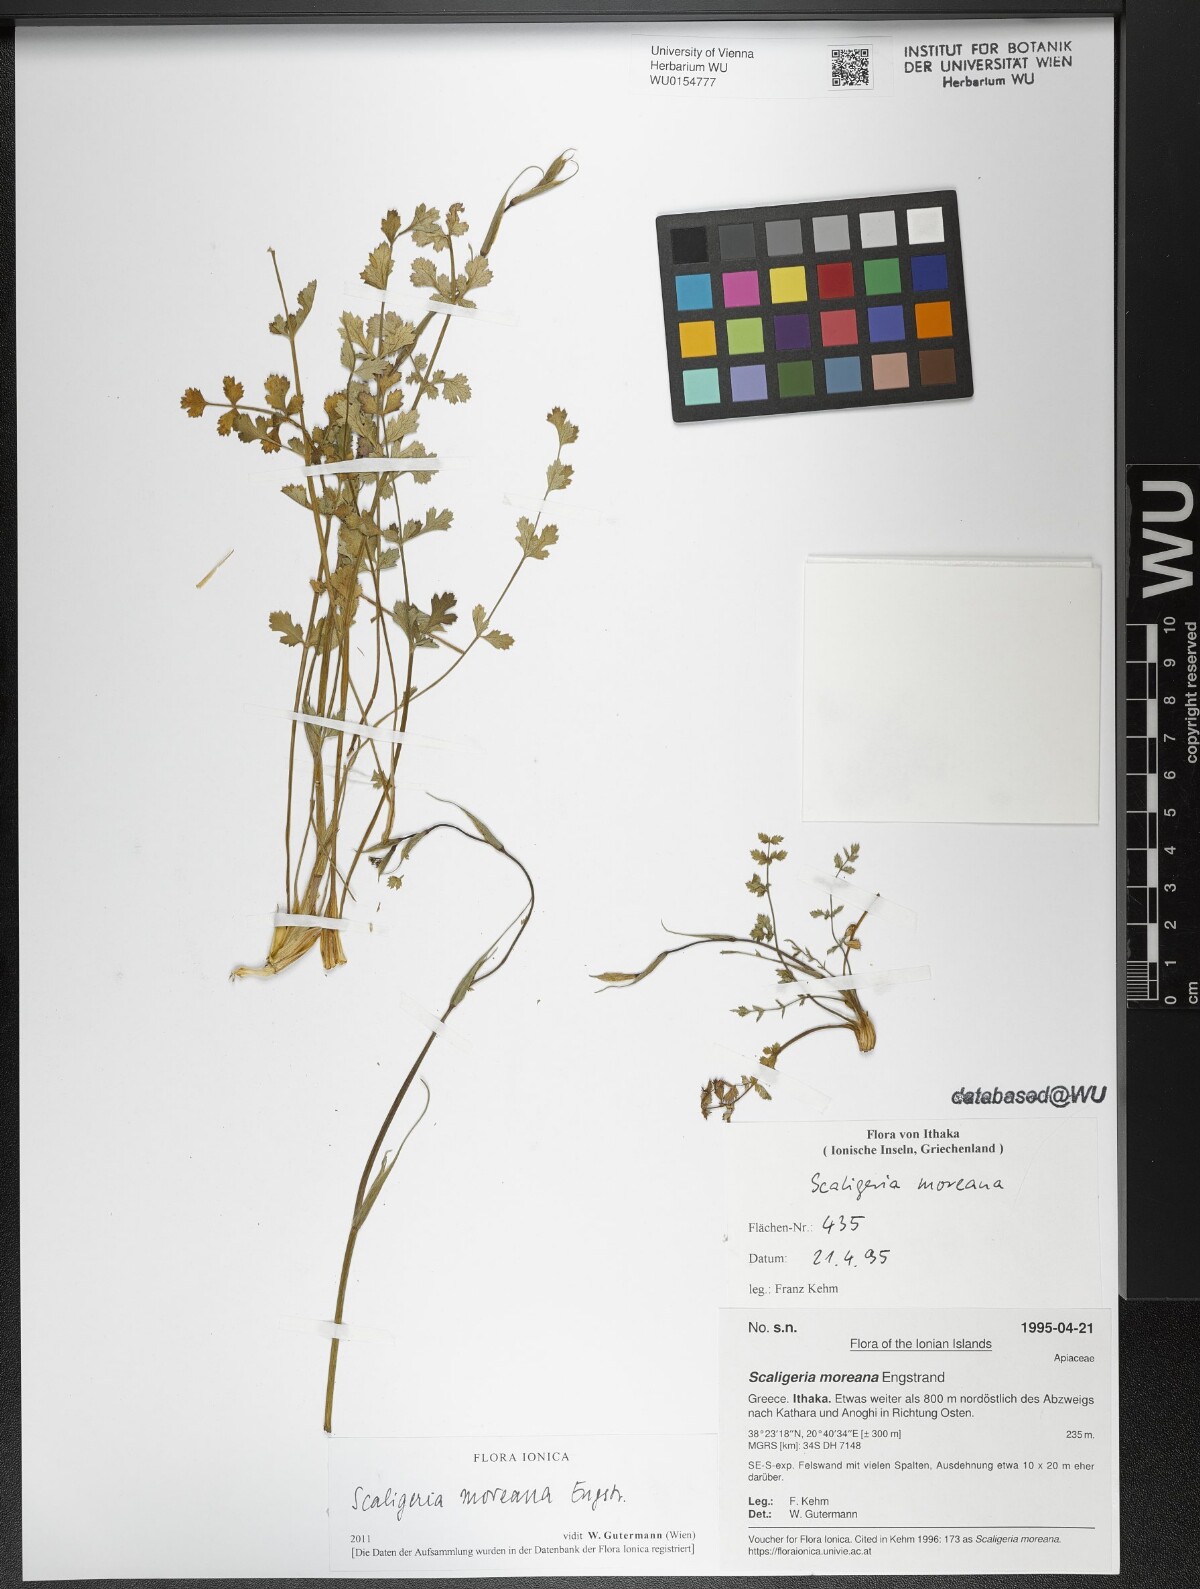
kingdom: Plantae
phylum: Tracheophyta
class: Magnoliopsida
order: Apiales
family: Apiaceae
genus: Scaligeria
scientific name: Scaligeria moreana
